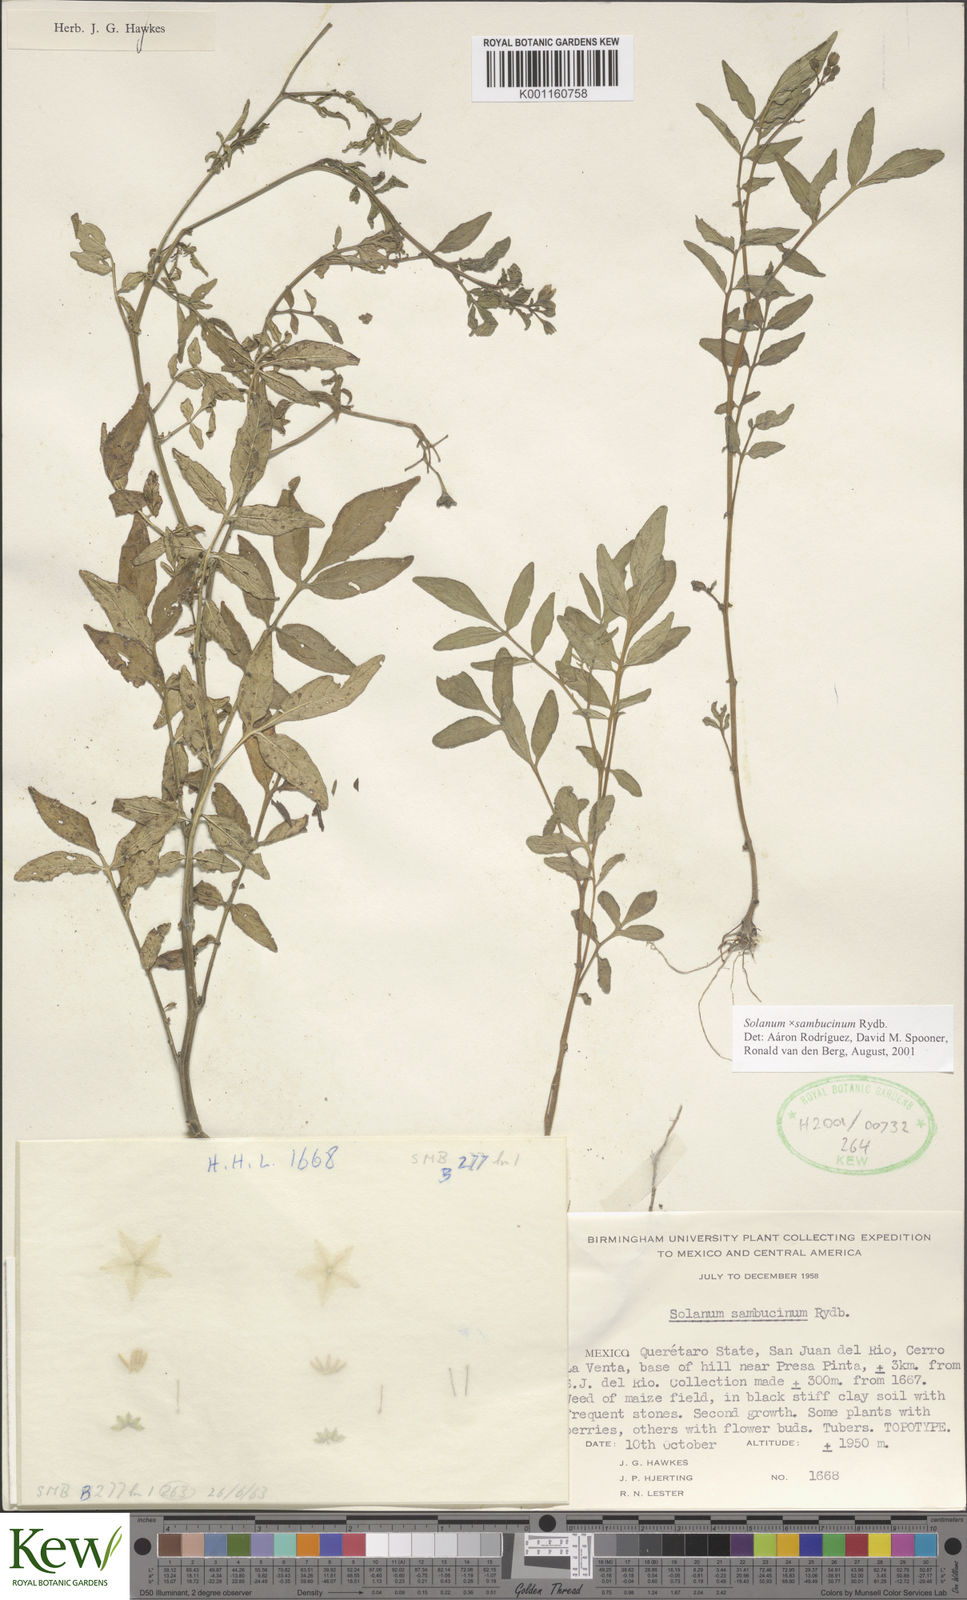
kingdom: Plantae
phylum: Tracheophyta
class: Magnoliopsida
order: Solanales
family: Solanaceae
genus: Solanum
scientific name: Solanum sambucinum
